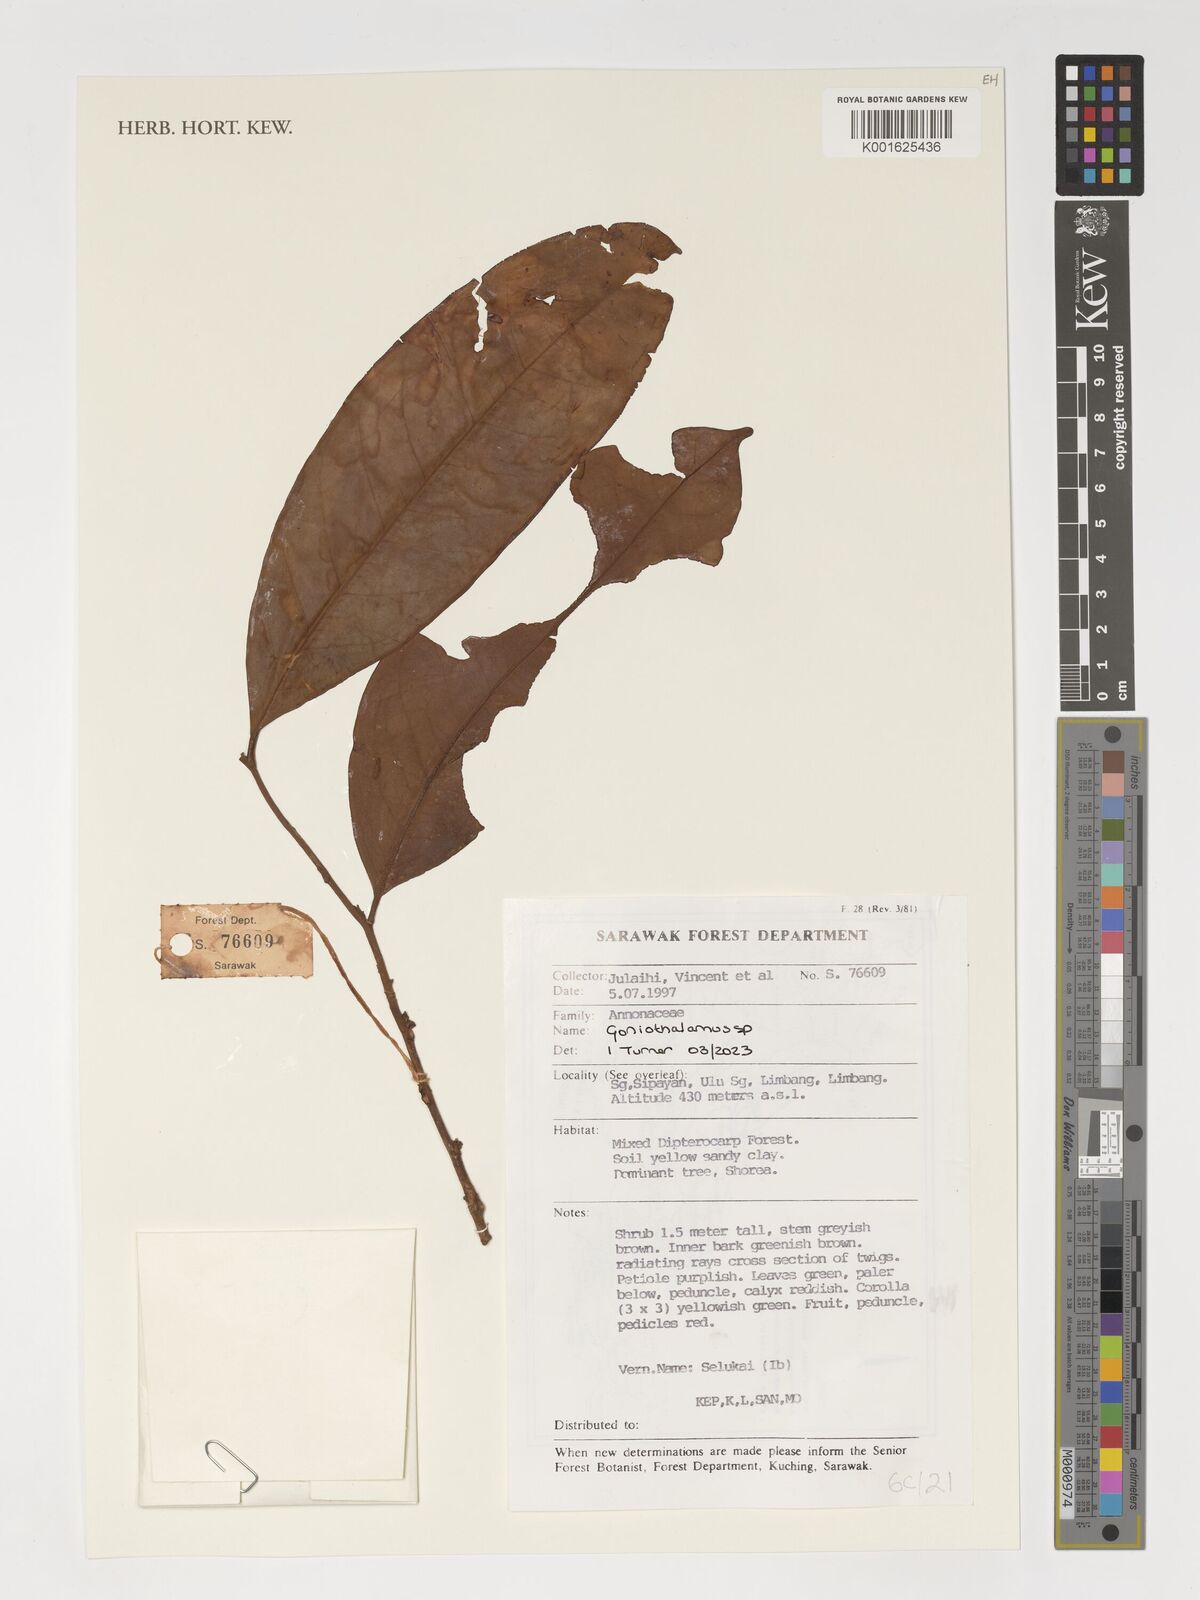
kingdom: Plantae
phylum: Tracheophyta
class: Magnoliopsida
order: Magnoliales
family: Annonaceae
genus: Goniothalamus
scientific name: Goniothalamus
